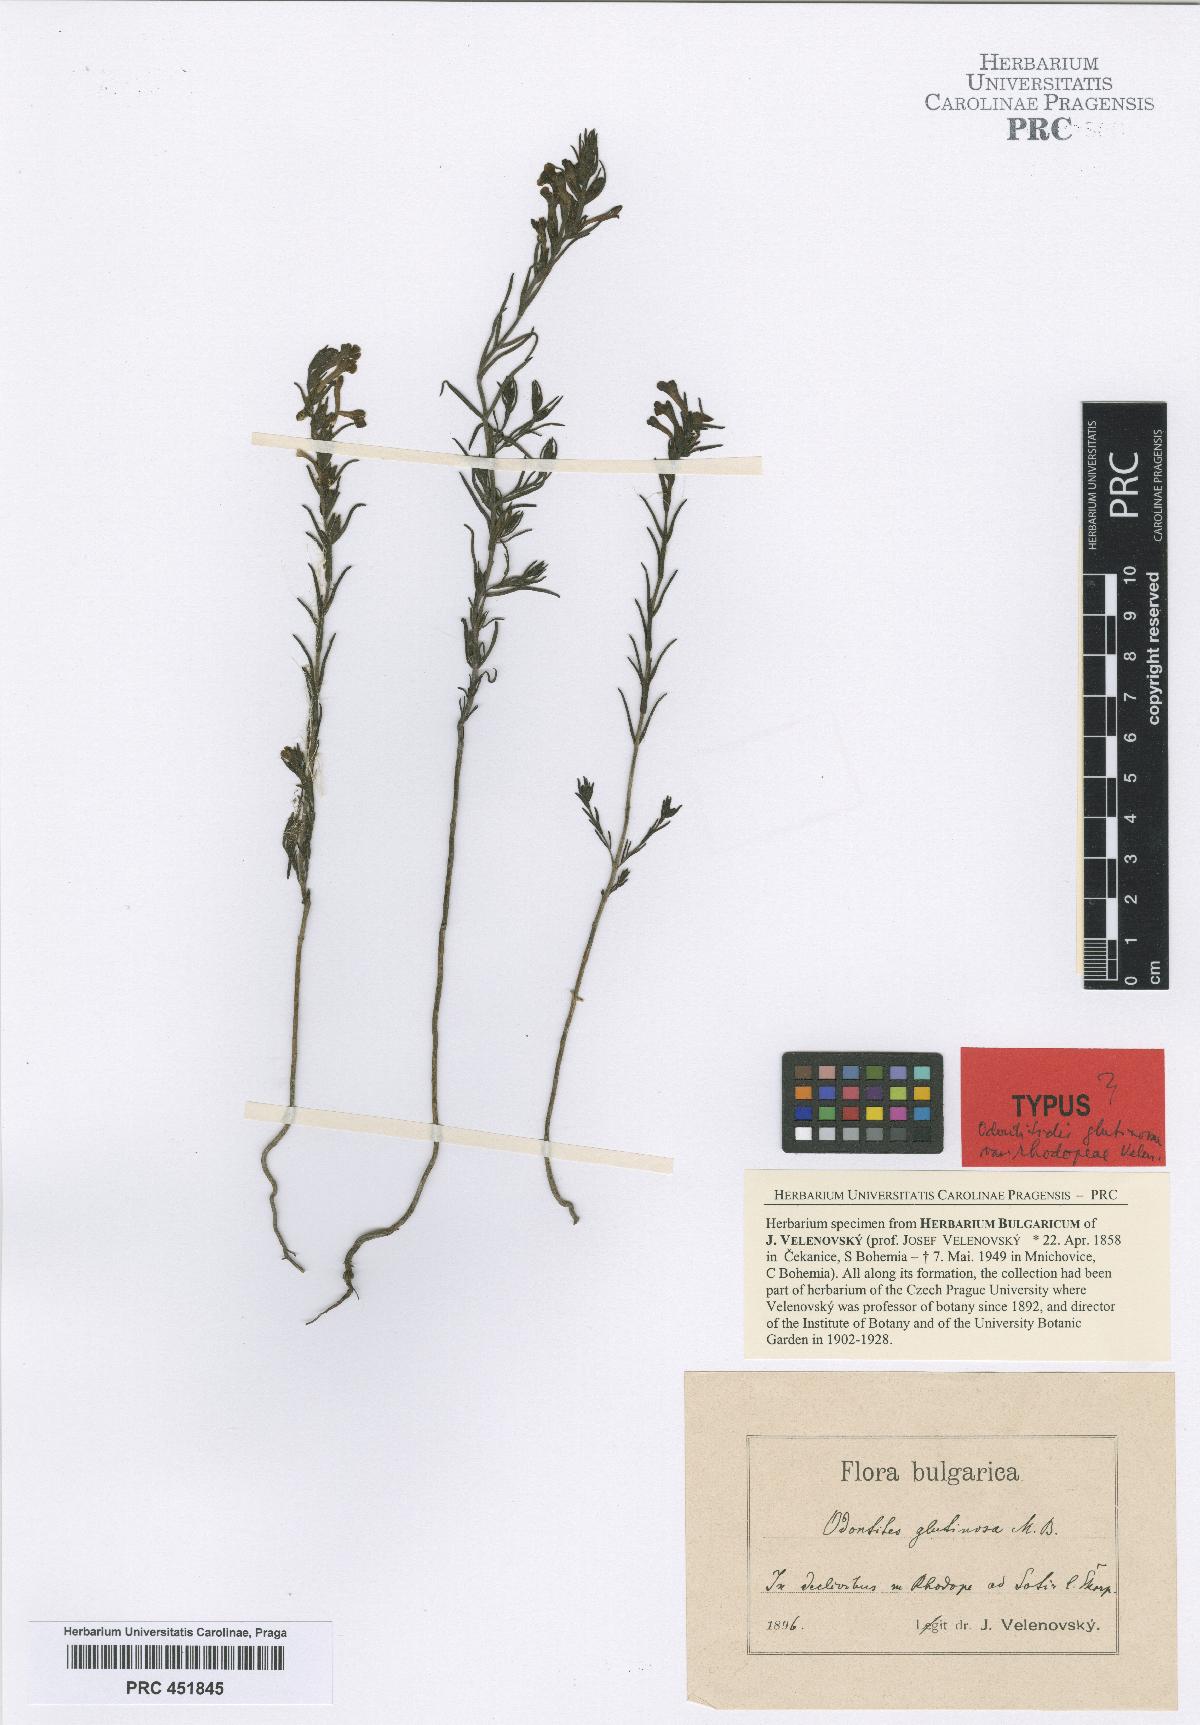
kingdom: Plantae
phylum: Tracheophyta
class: Magnoliopsida
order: Lamiales
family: Orobanchaceae
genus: Odontites
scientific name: Odontites glutinosus
